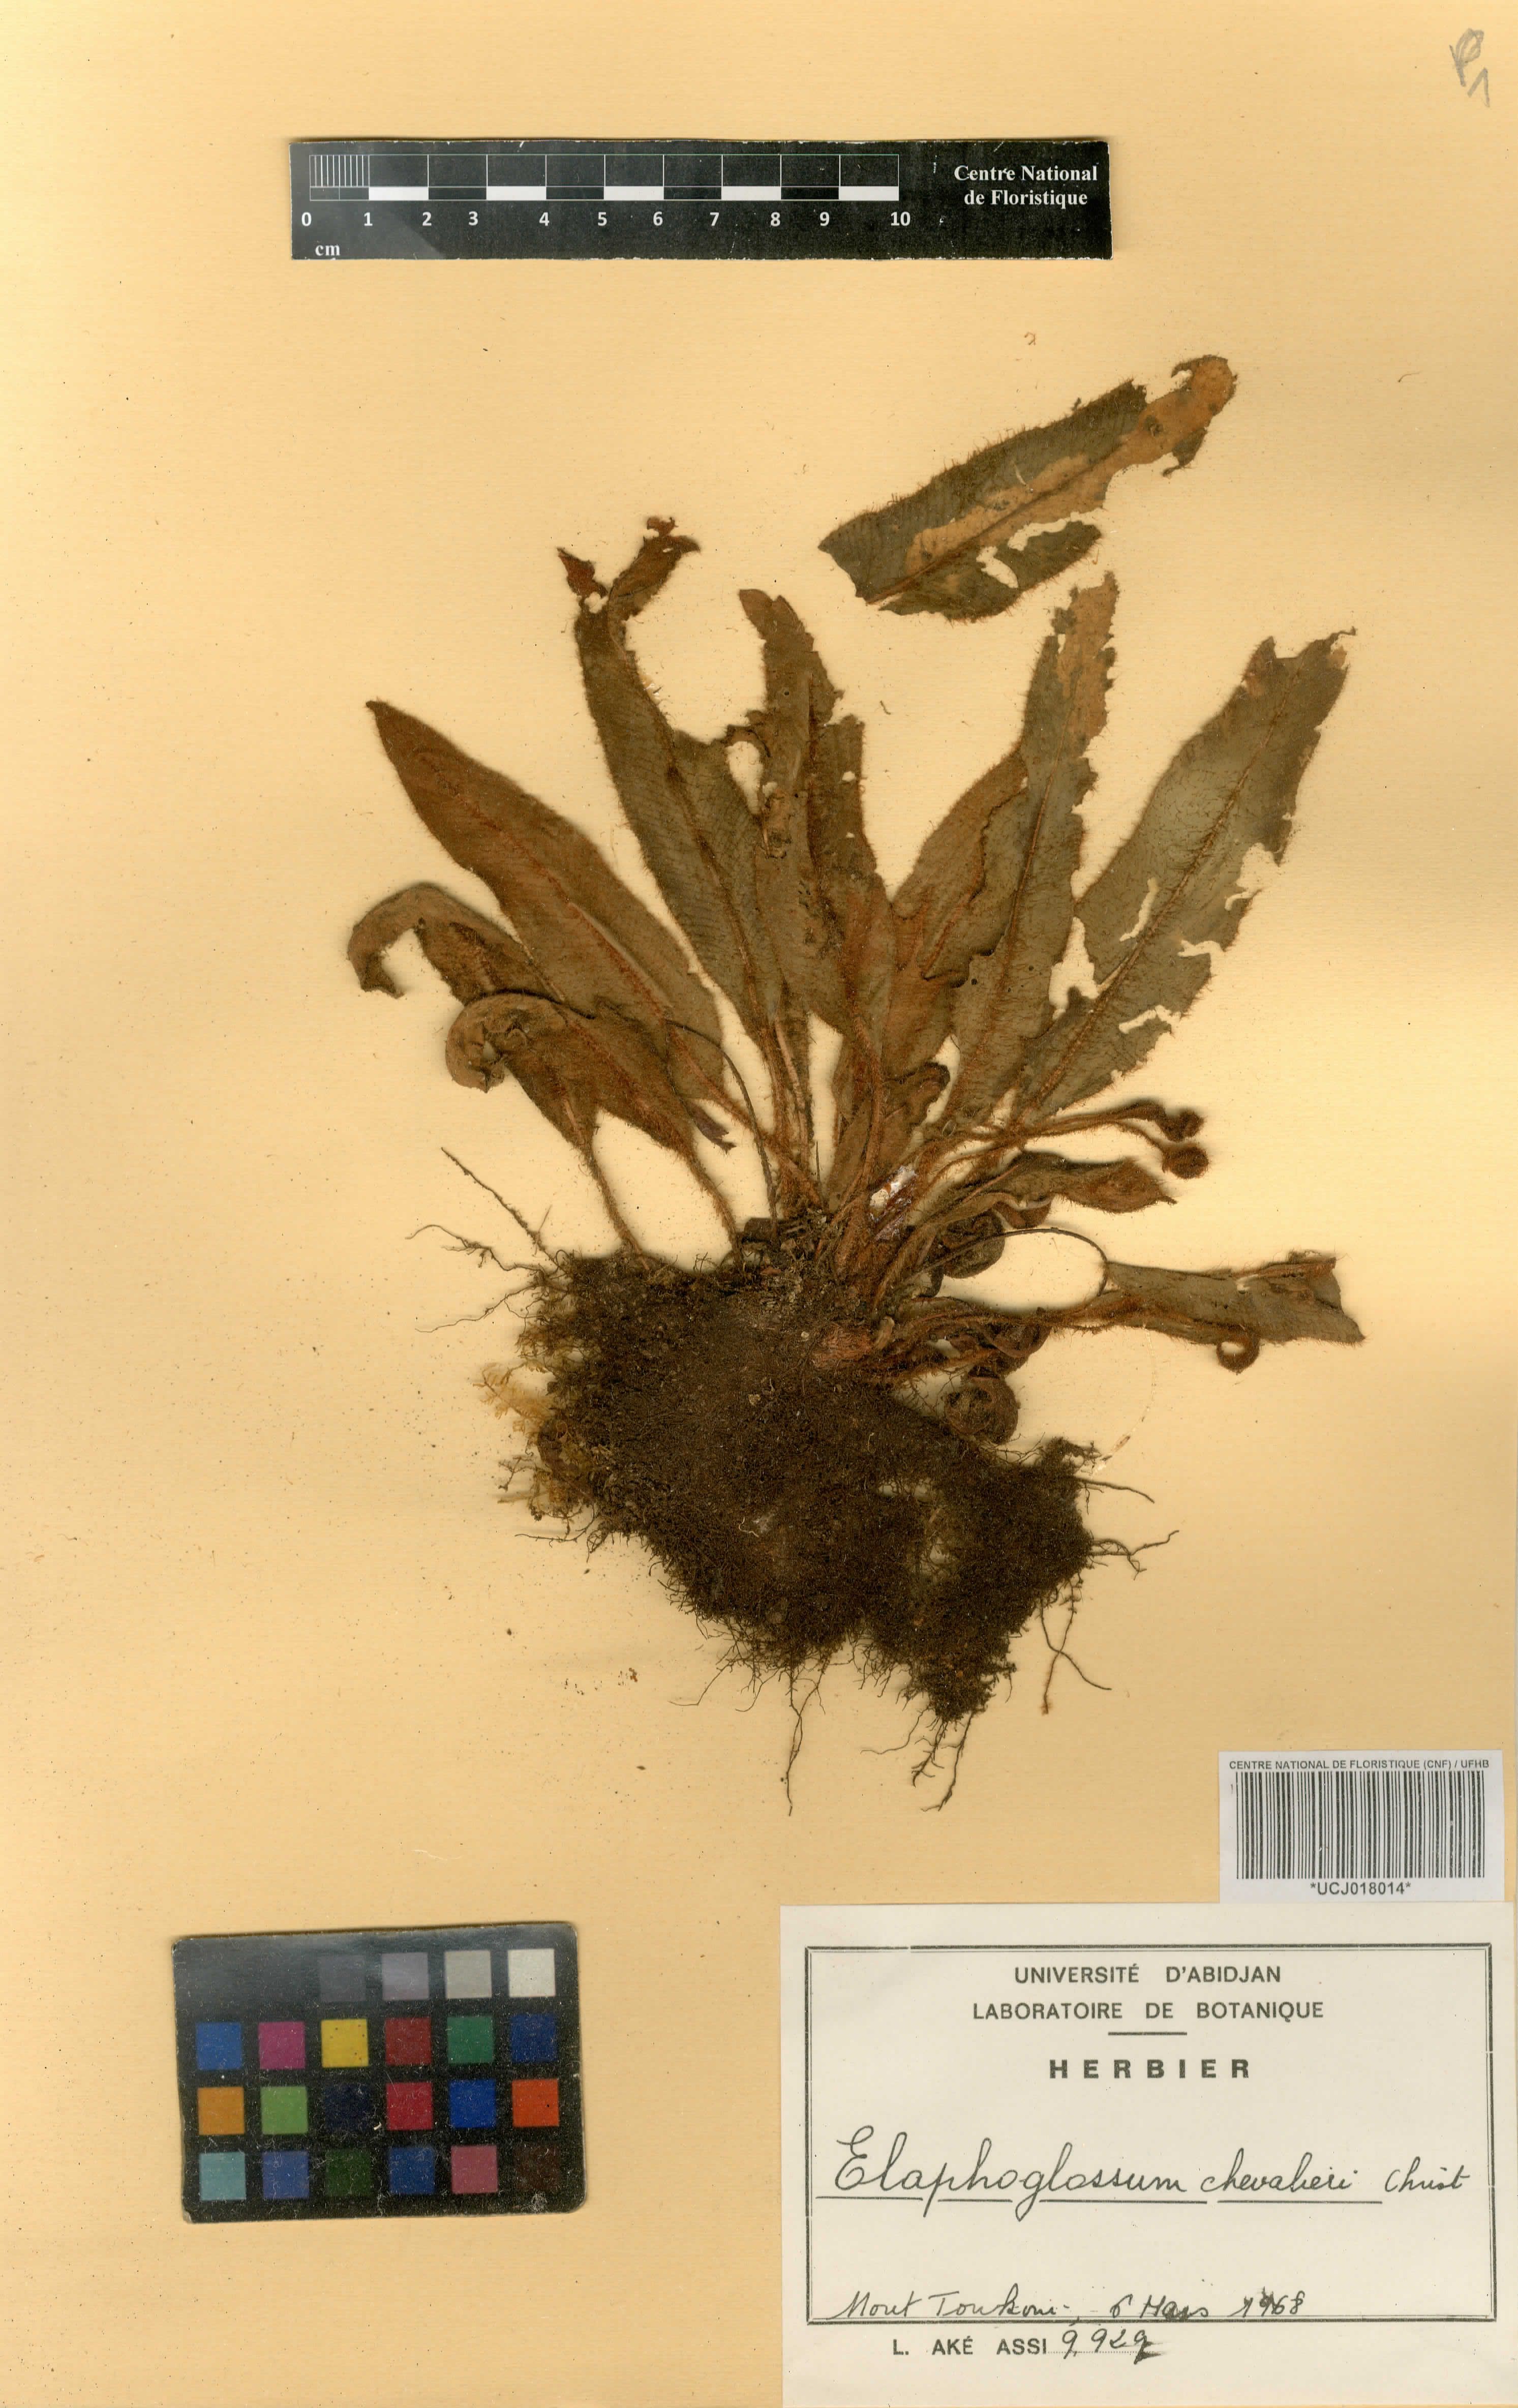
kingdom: Plantae
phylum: Tracheophyta
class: Polypodiopsida
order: Polypodiales
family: Dryopteridaceae
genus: Elaphoglossum
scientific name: Elaphoglossum chevalieri
